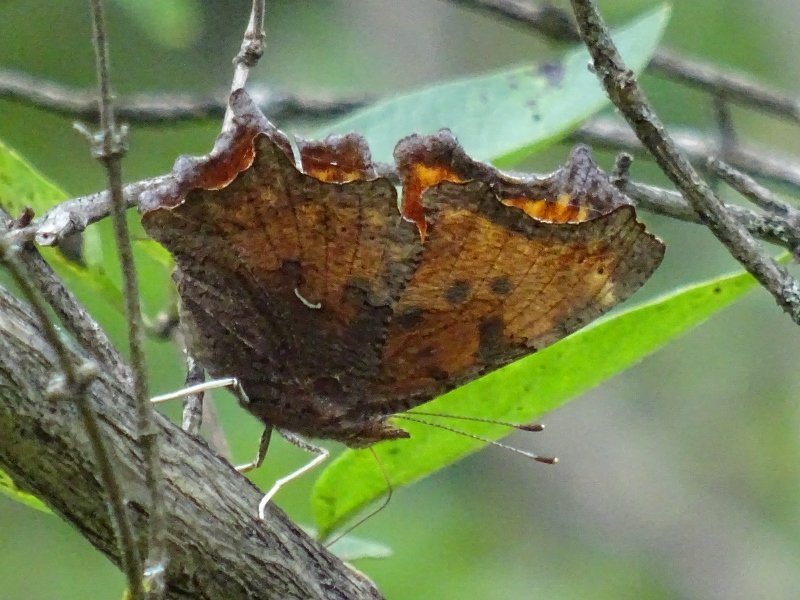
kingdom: Animalia
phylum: Arthropoda
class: Insecta
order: Lepidoptera
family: Nymphalidae
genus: Polygonia
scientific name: Polygonia comma
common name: Eastern Comma
